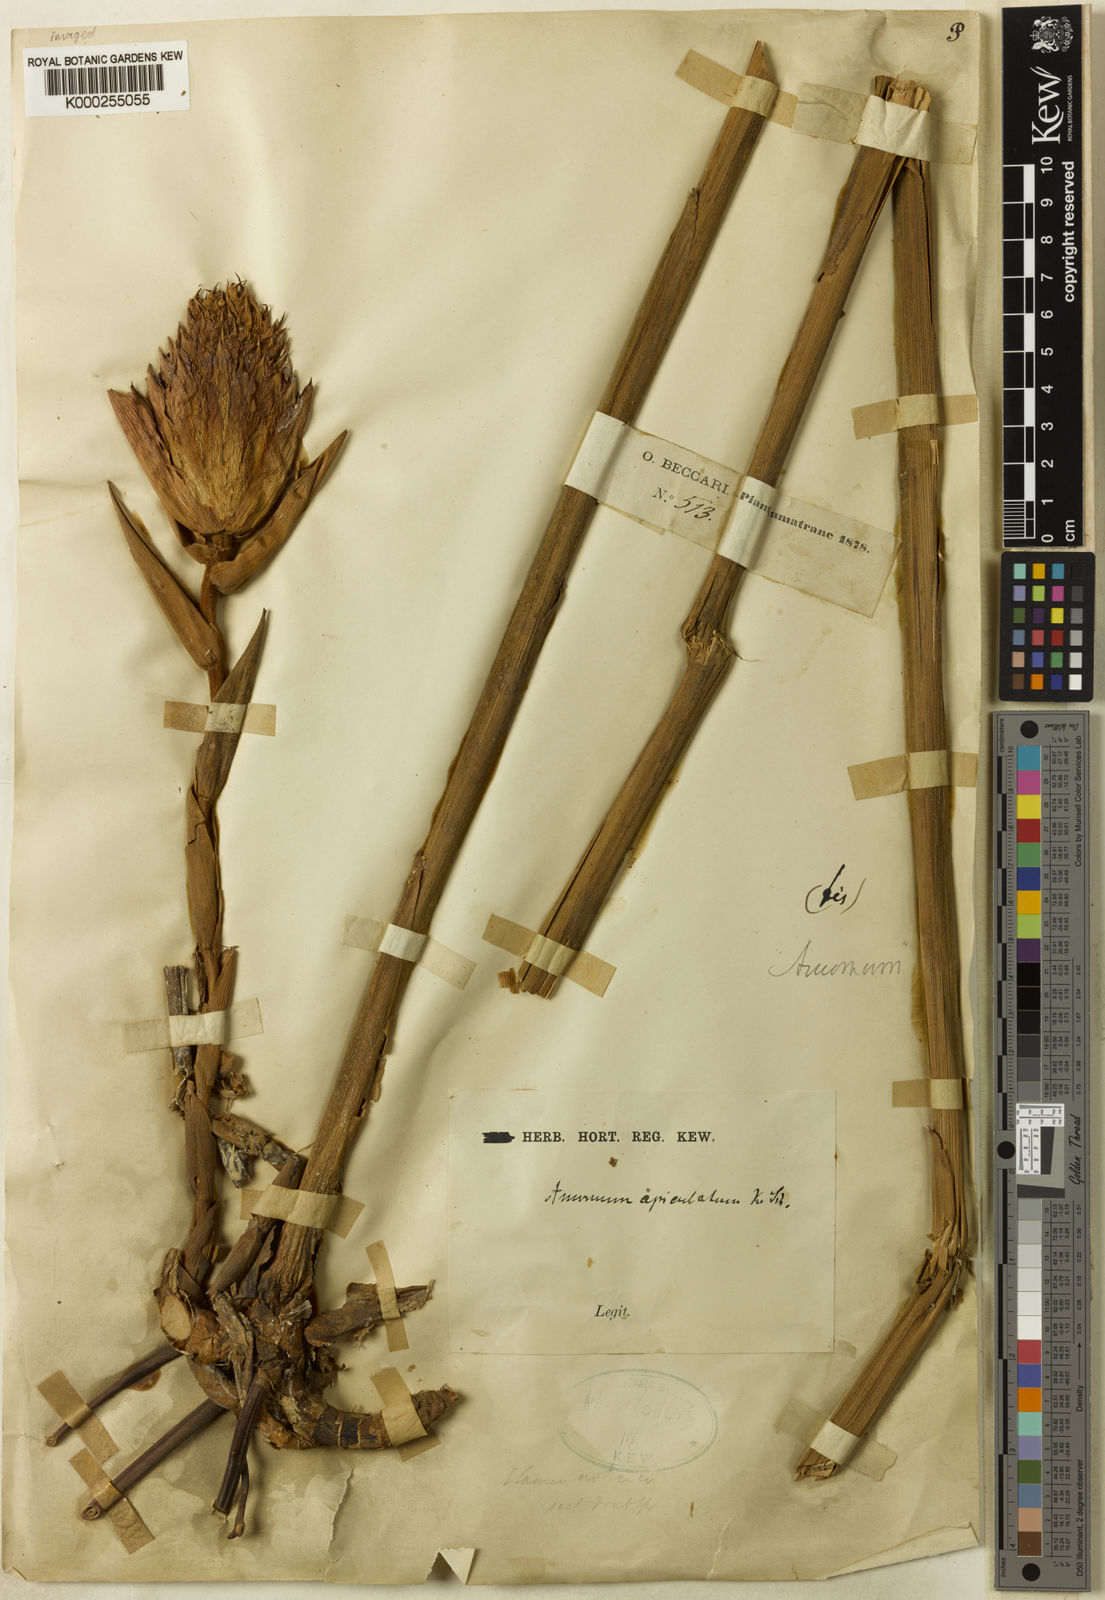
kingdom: Plantae
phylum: Tracheophyta
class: Liliopsida
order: Zingiberales
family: Zingiberaceae
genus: Amomum
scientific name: Amomum apiculatum
